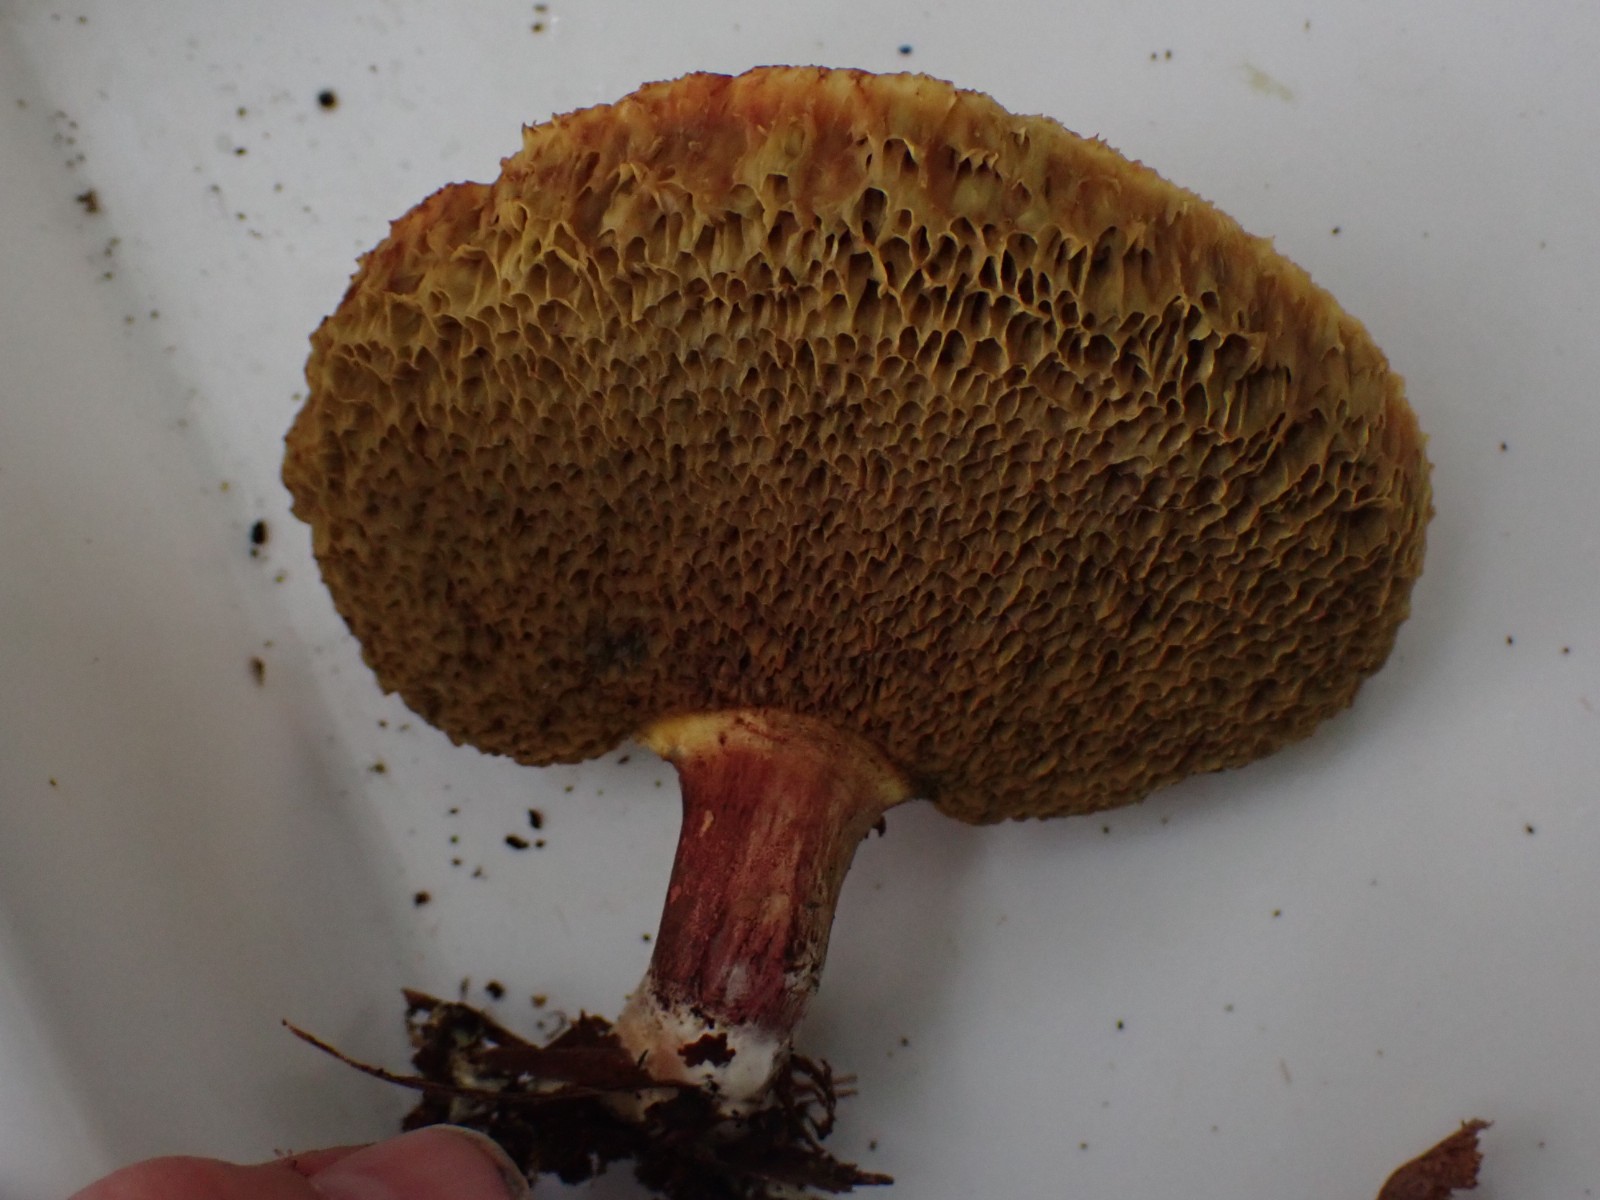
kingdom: Fungi
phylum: Basidiomycota
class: Agaricomycetes
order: Boletales
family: Boletaceae
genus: Xerocomellus
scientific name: Xerocomellus
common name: dværgrørhat
